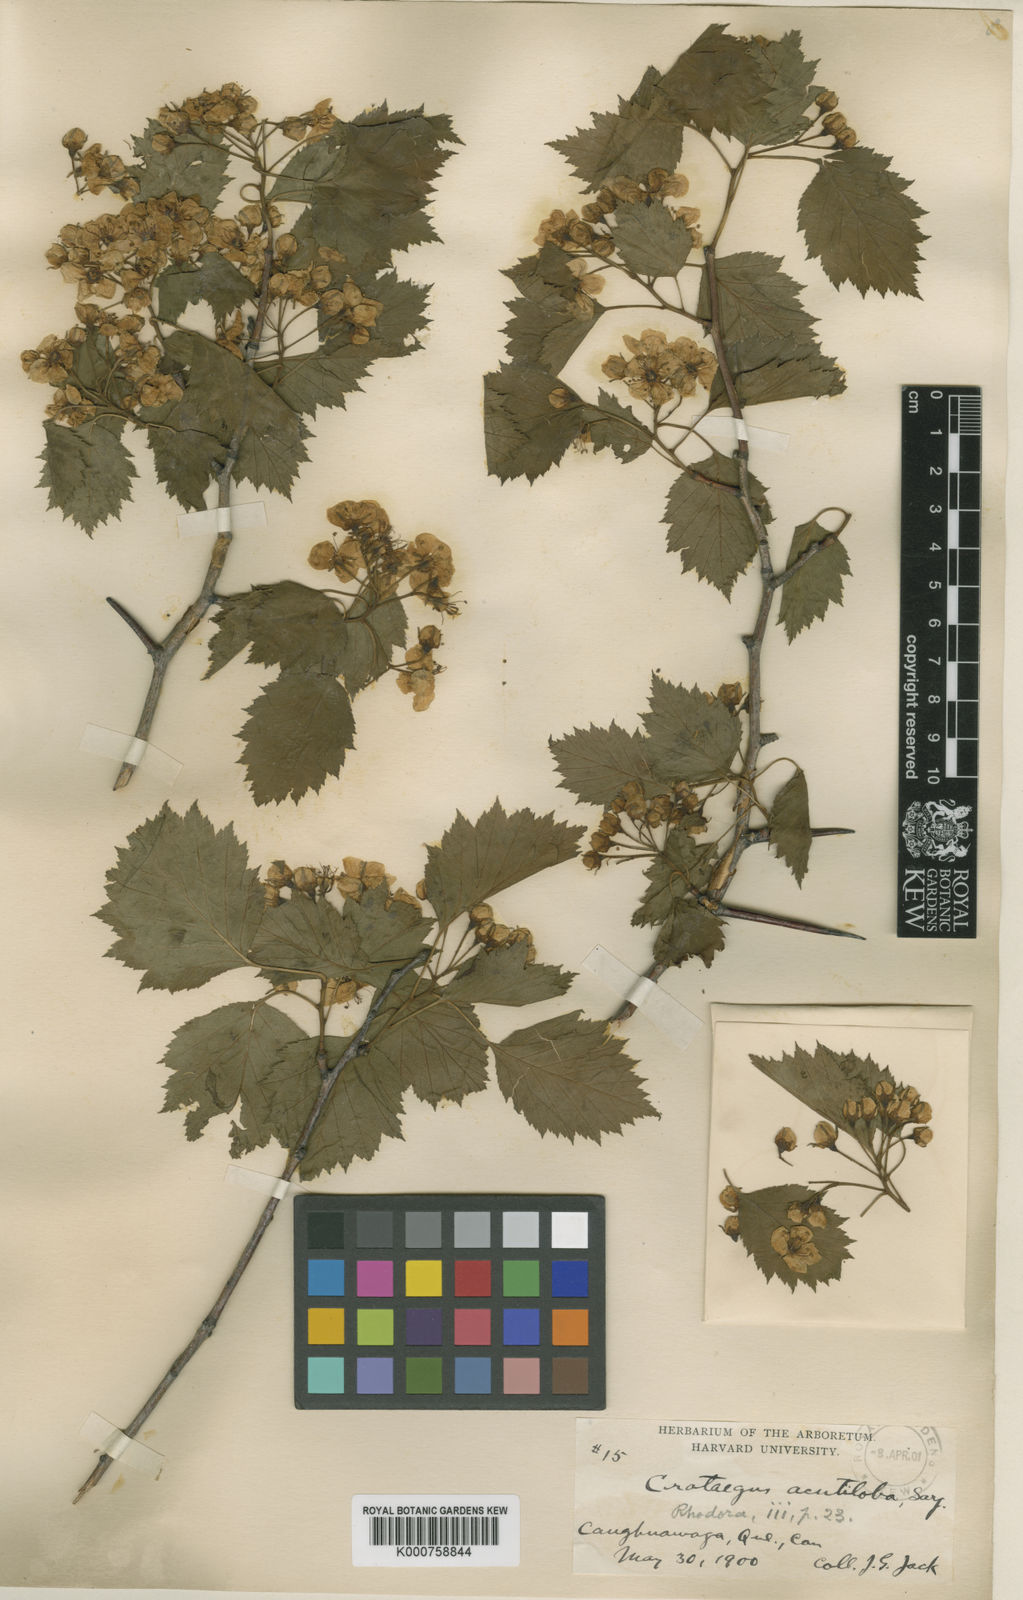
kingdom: Plantae
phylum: Tracheophyta
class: Magnoliopsida
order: Rosales
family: Rosaceae
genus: Crataegus
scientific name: Crataegus macrosperma
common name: Variable hawthorn
